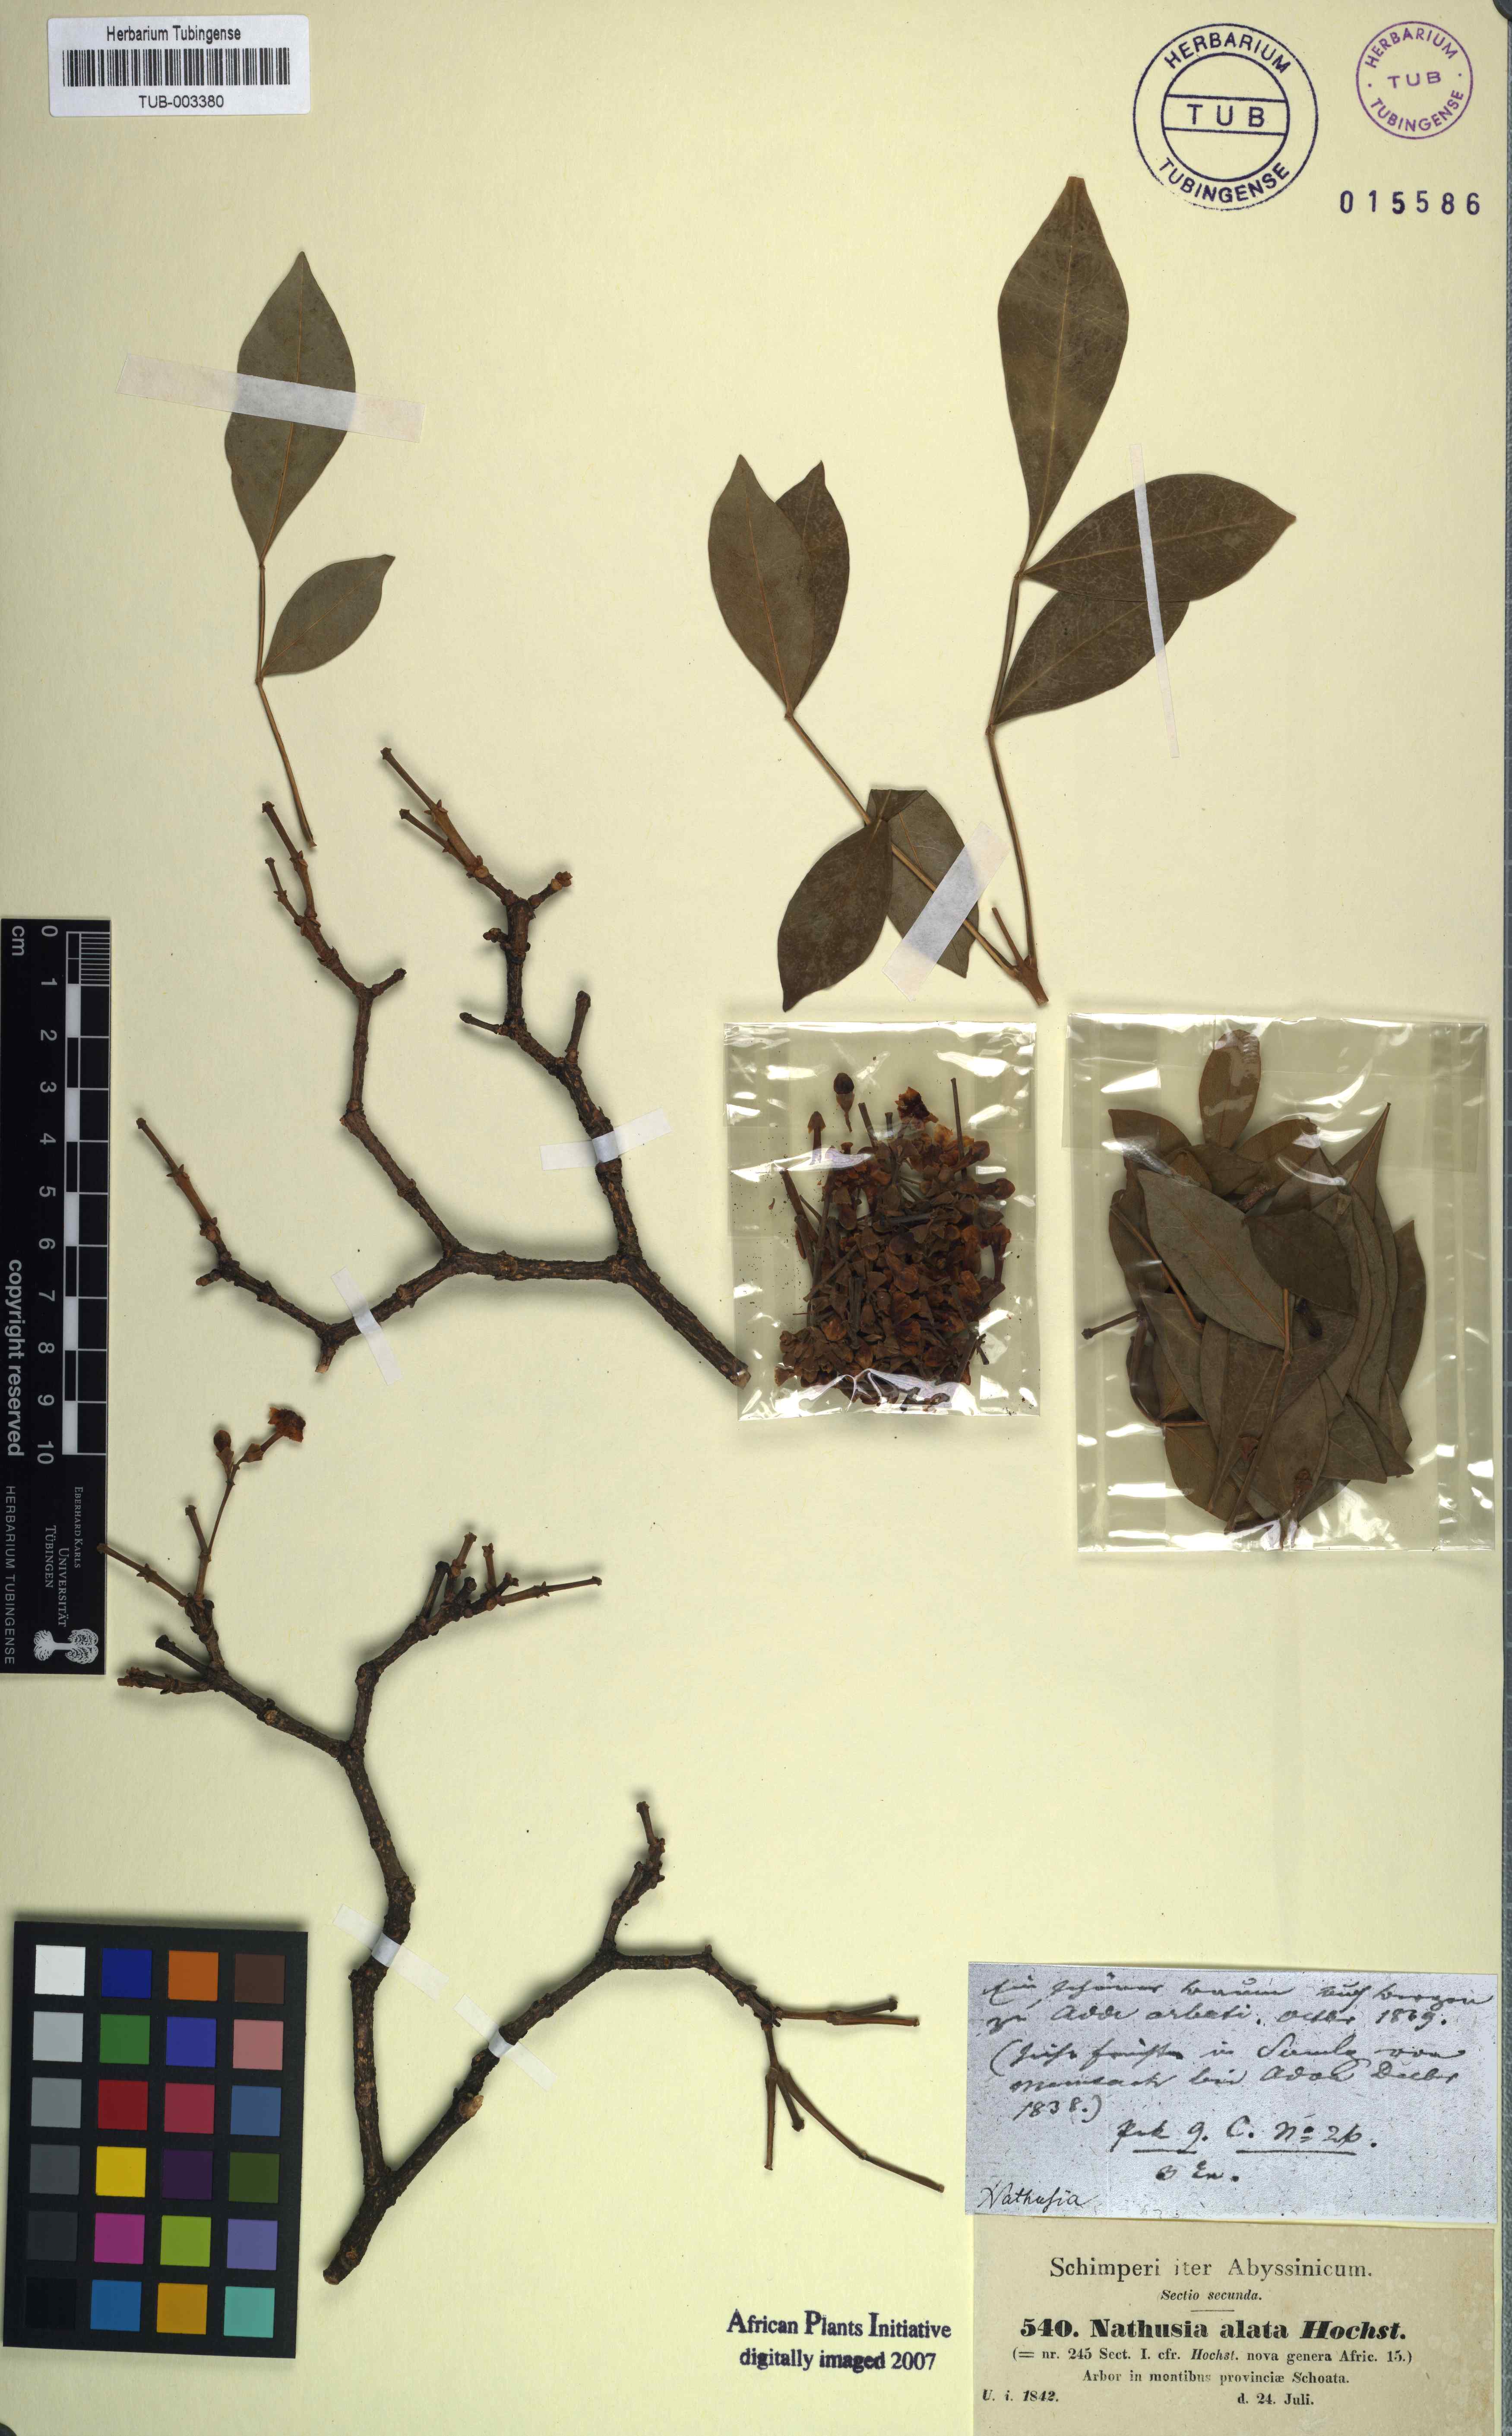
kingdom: Plantae
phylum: Tracheophyta
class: Magnoliopsida
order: Lamiales
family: Oleaceae
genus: Schrebera
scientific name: Schrebera alata
